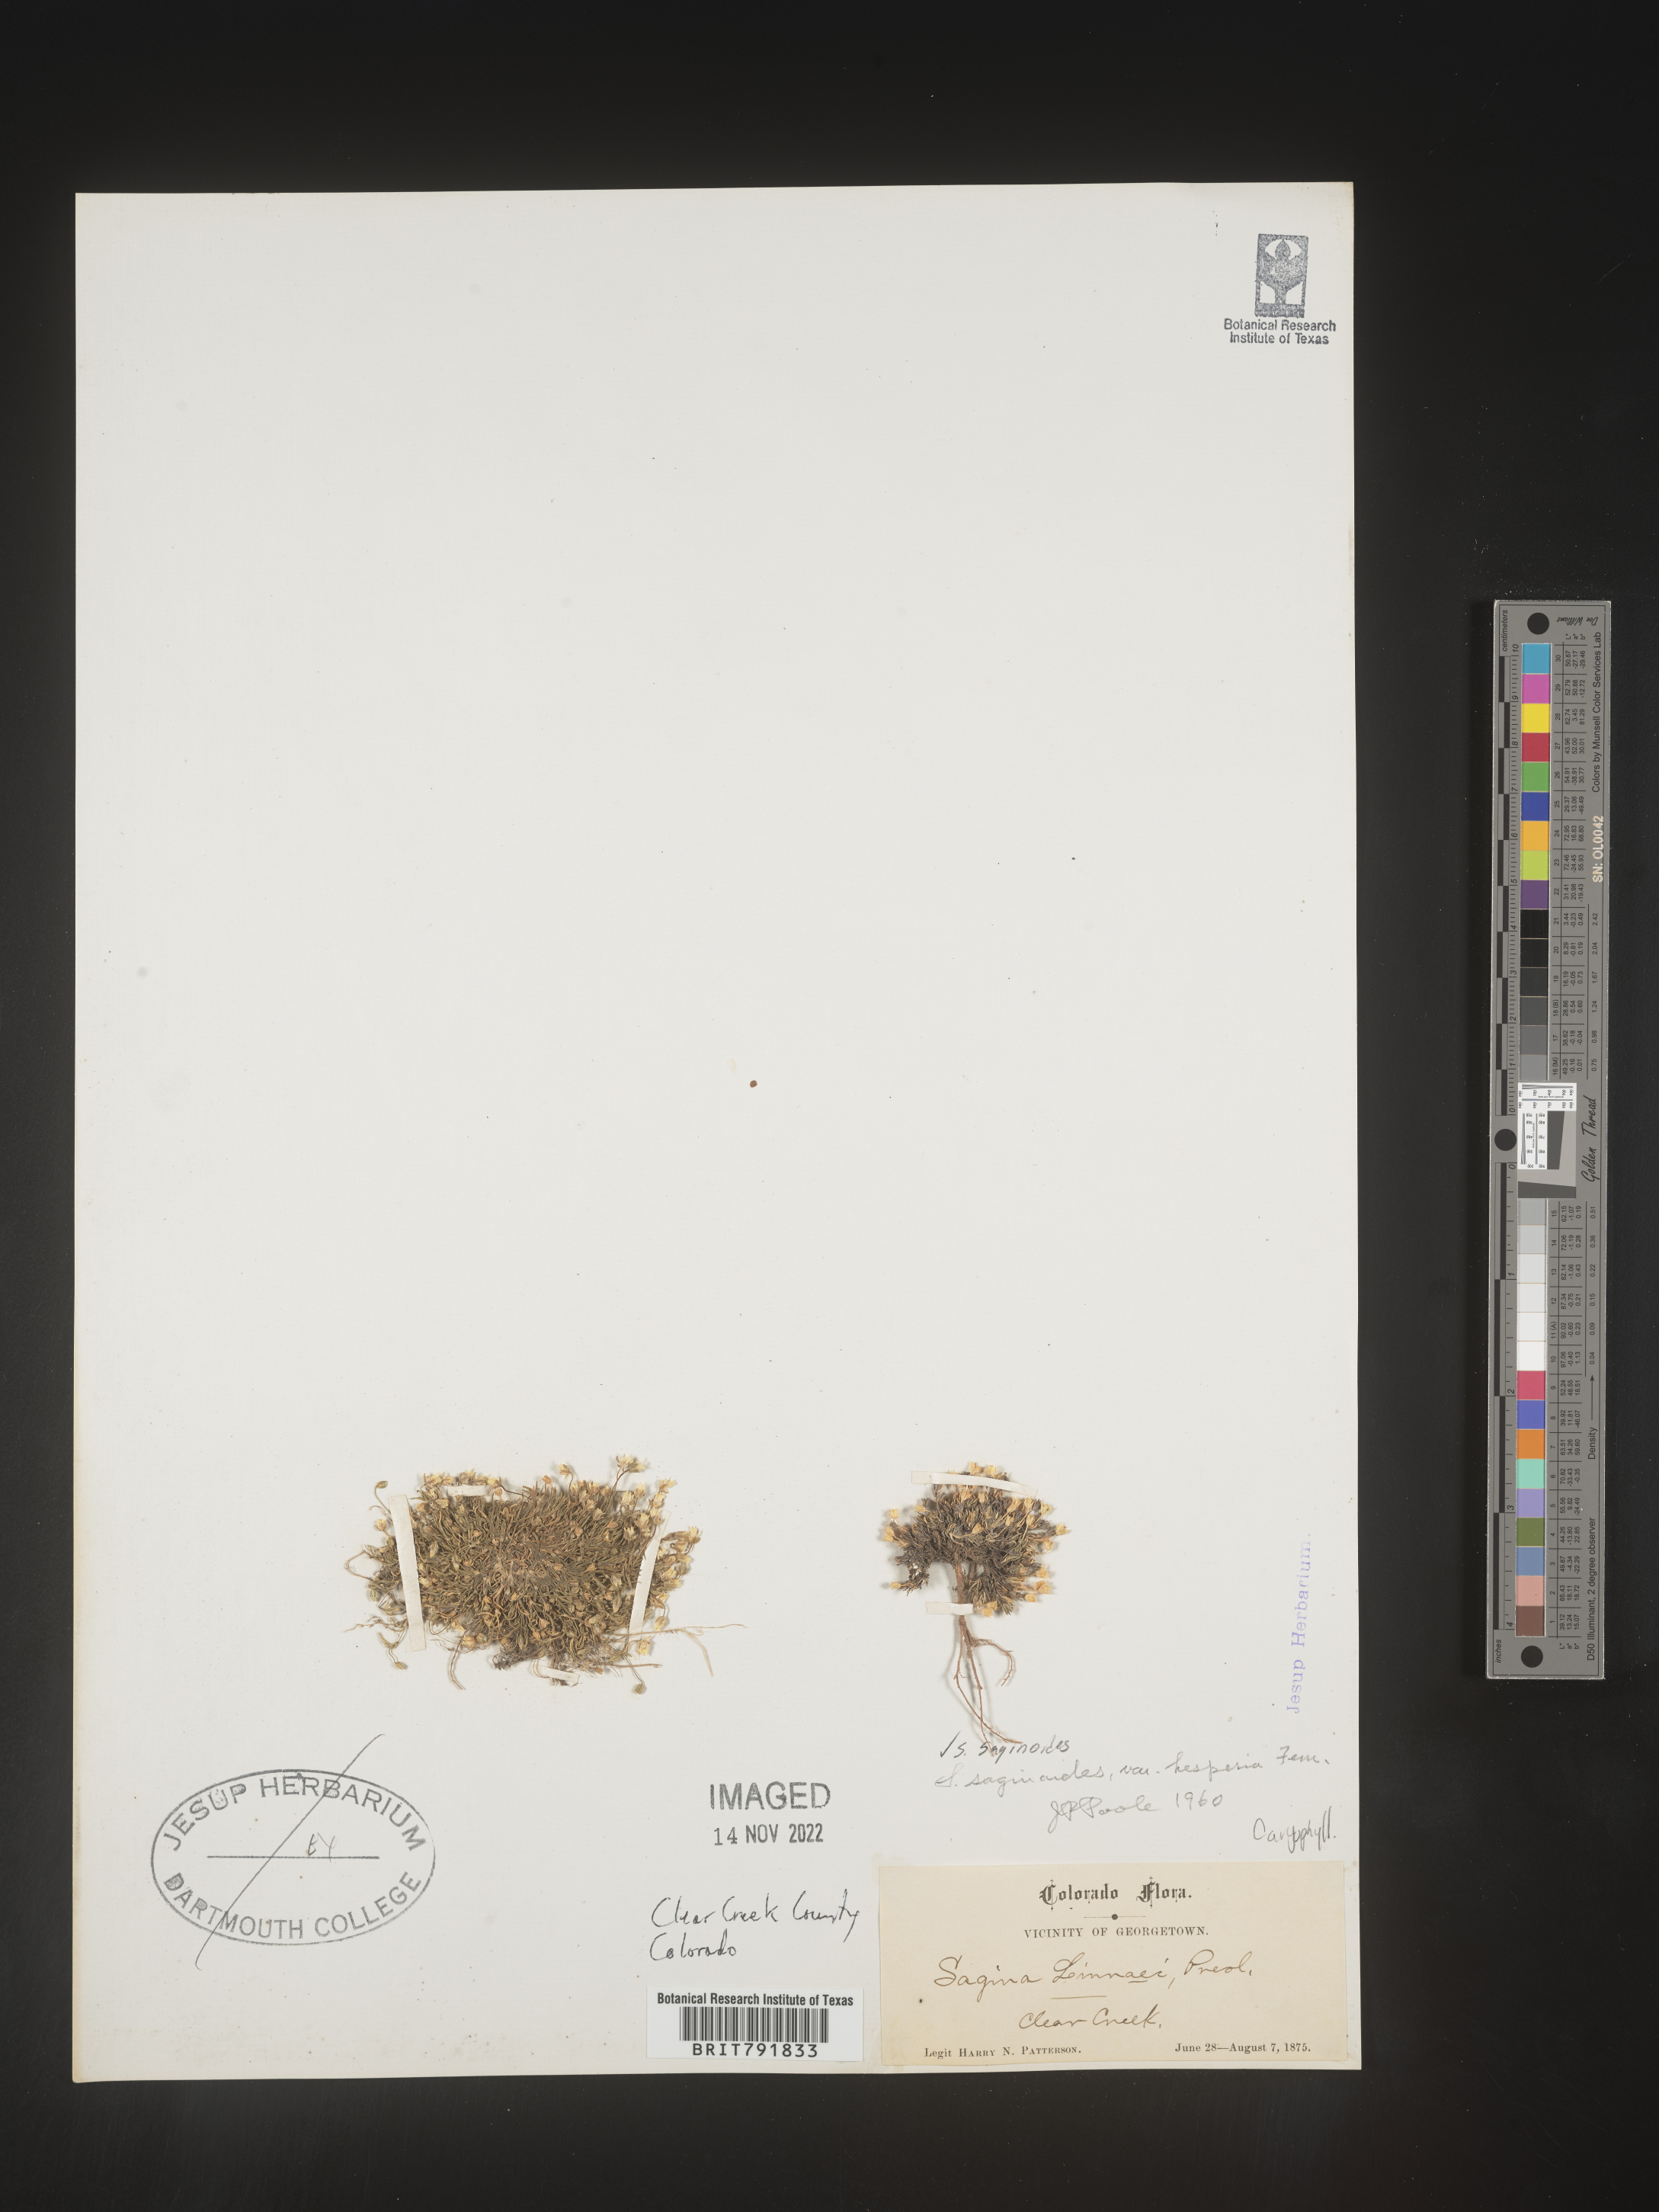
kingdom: Plantae
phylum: Tracheophyta
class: Magnoliopsida
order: Caryophyllales
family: Caryophyllaceae
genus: Sagina
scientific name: Sagina
